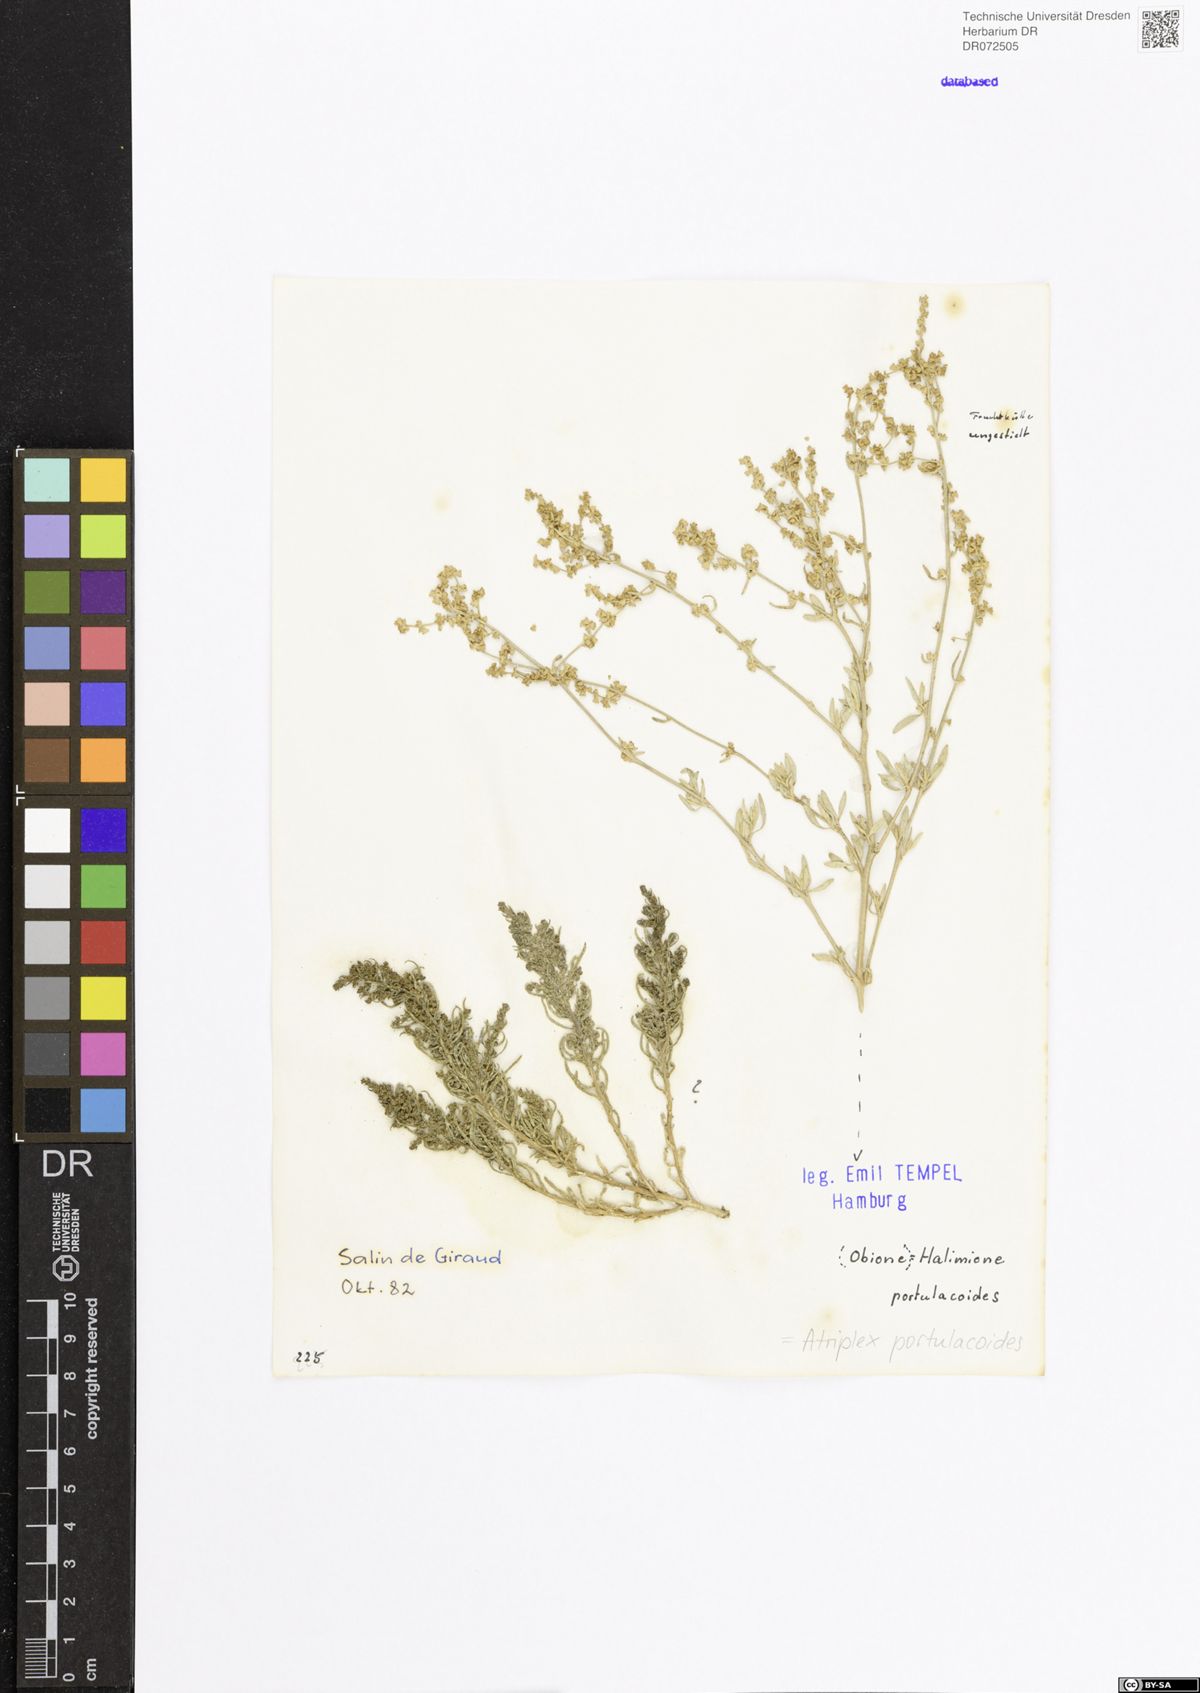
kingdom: Plantae
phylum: Tracheophyta
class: Magnoliopsida
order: Caryophyllales
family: Amaranthaceae
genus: Halimione
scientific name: Halimione portulacoides
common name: Sea-purslane
